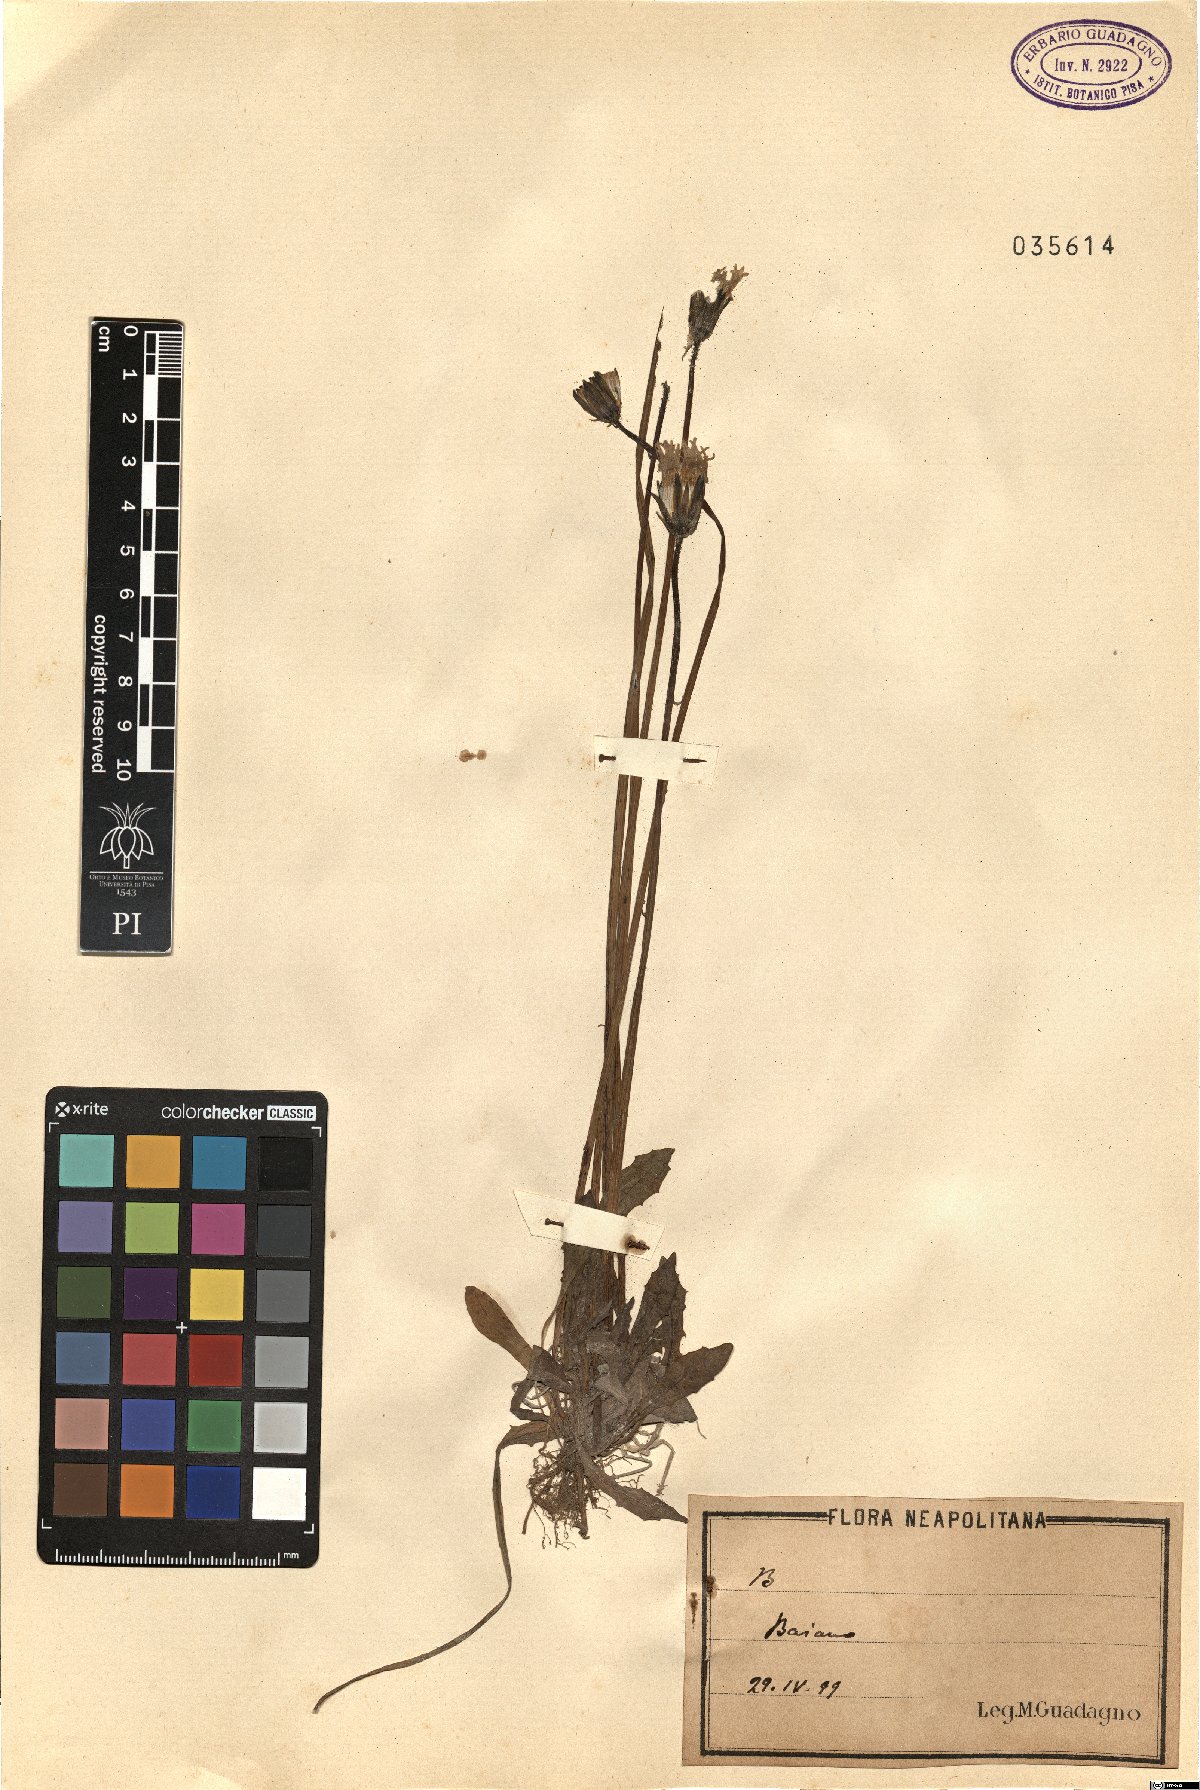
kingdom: Plantae
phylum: Tracheophyta
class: Magnoliopsida
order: Asterales
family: Asteraceae
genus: Crepis
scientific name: Crepis
